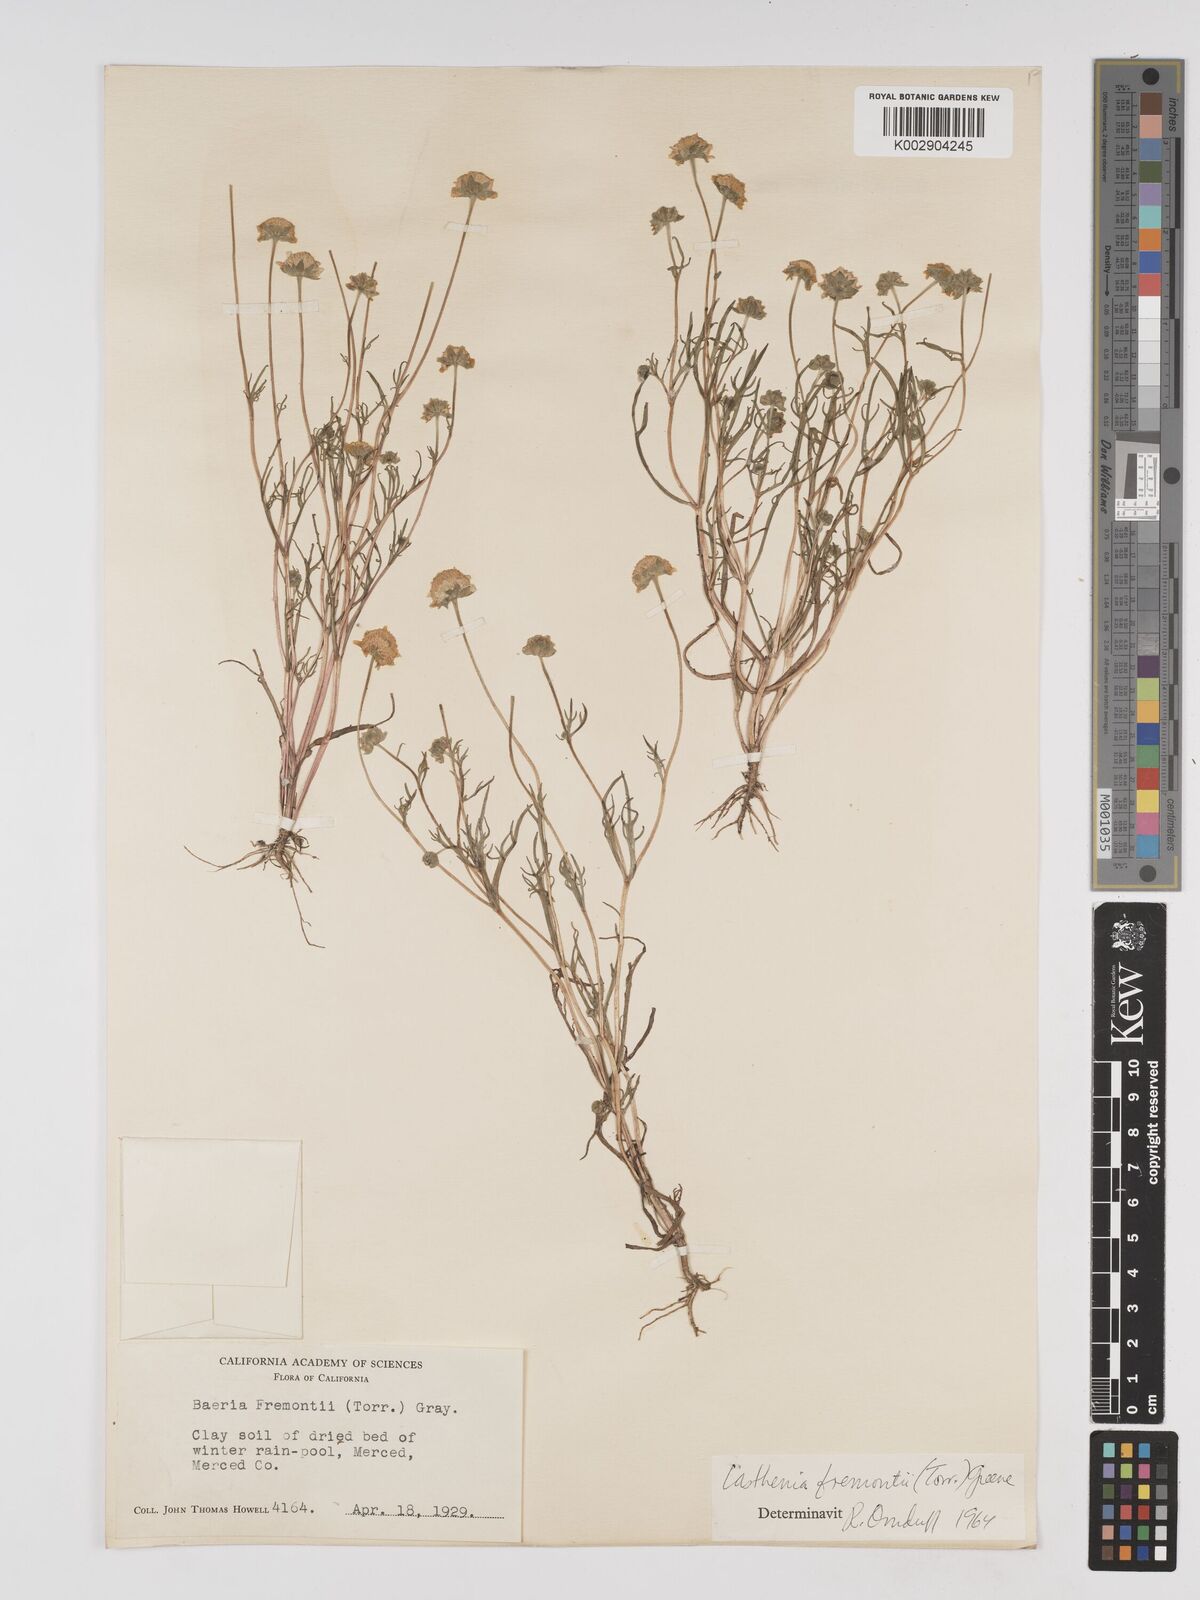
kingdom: Plantae
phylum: Tracheophyta
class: Magnoliopsida
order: Asterales
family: Asteraceae
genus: Lasthenia
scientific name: Lasthenia fremontii
